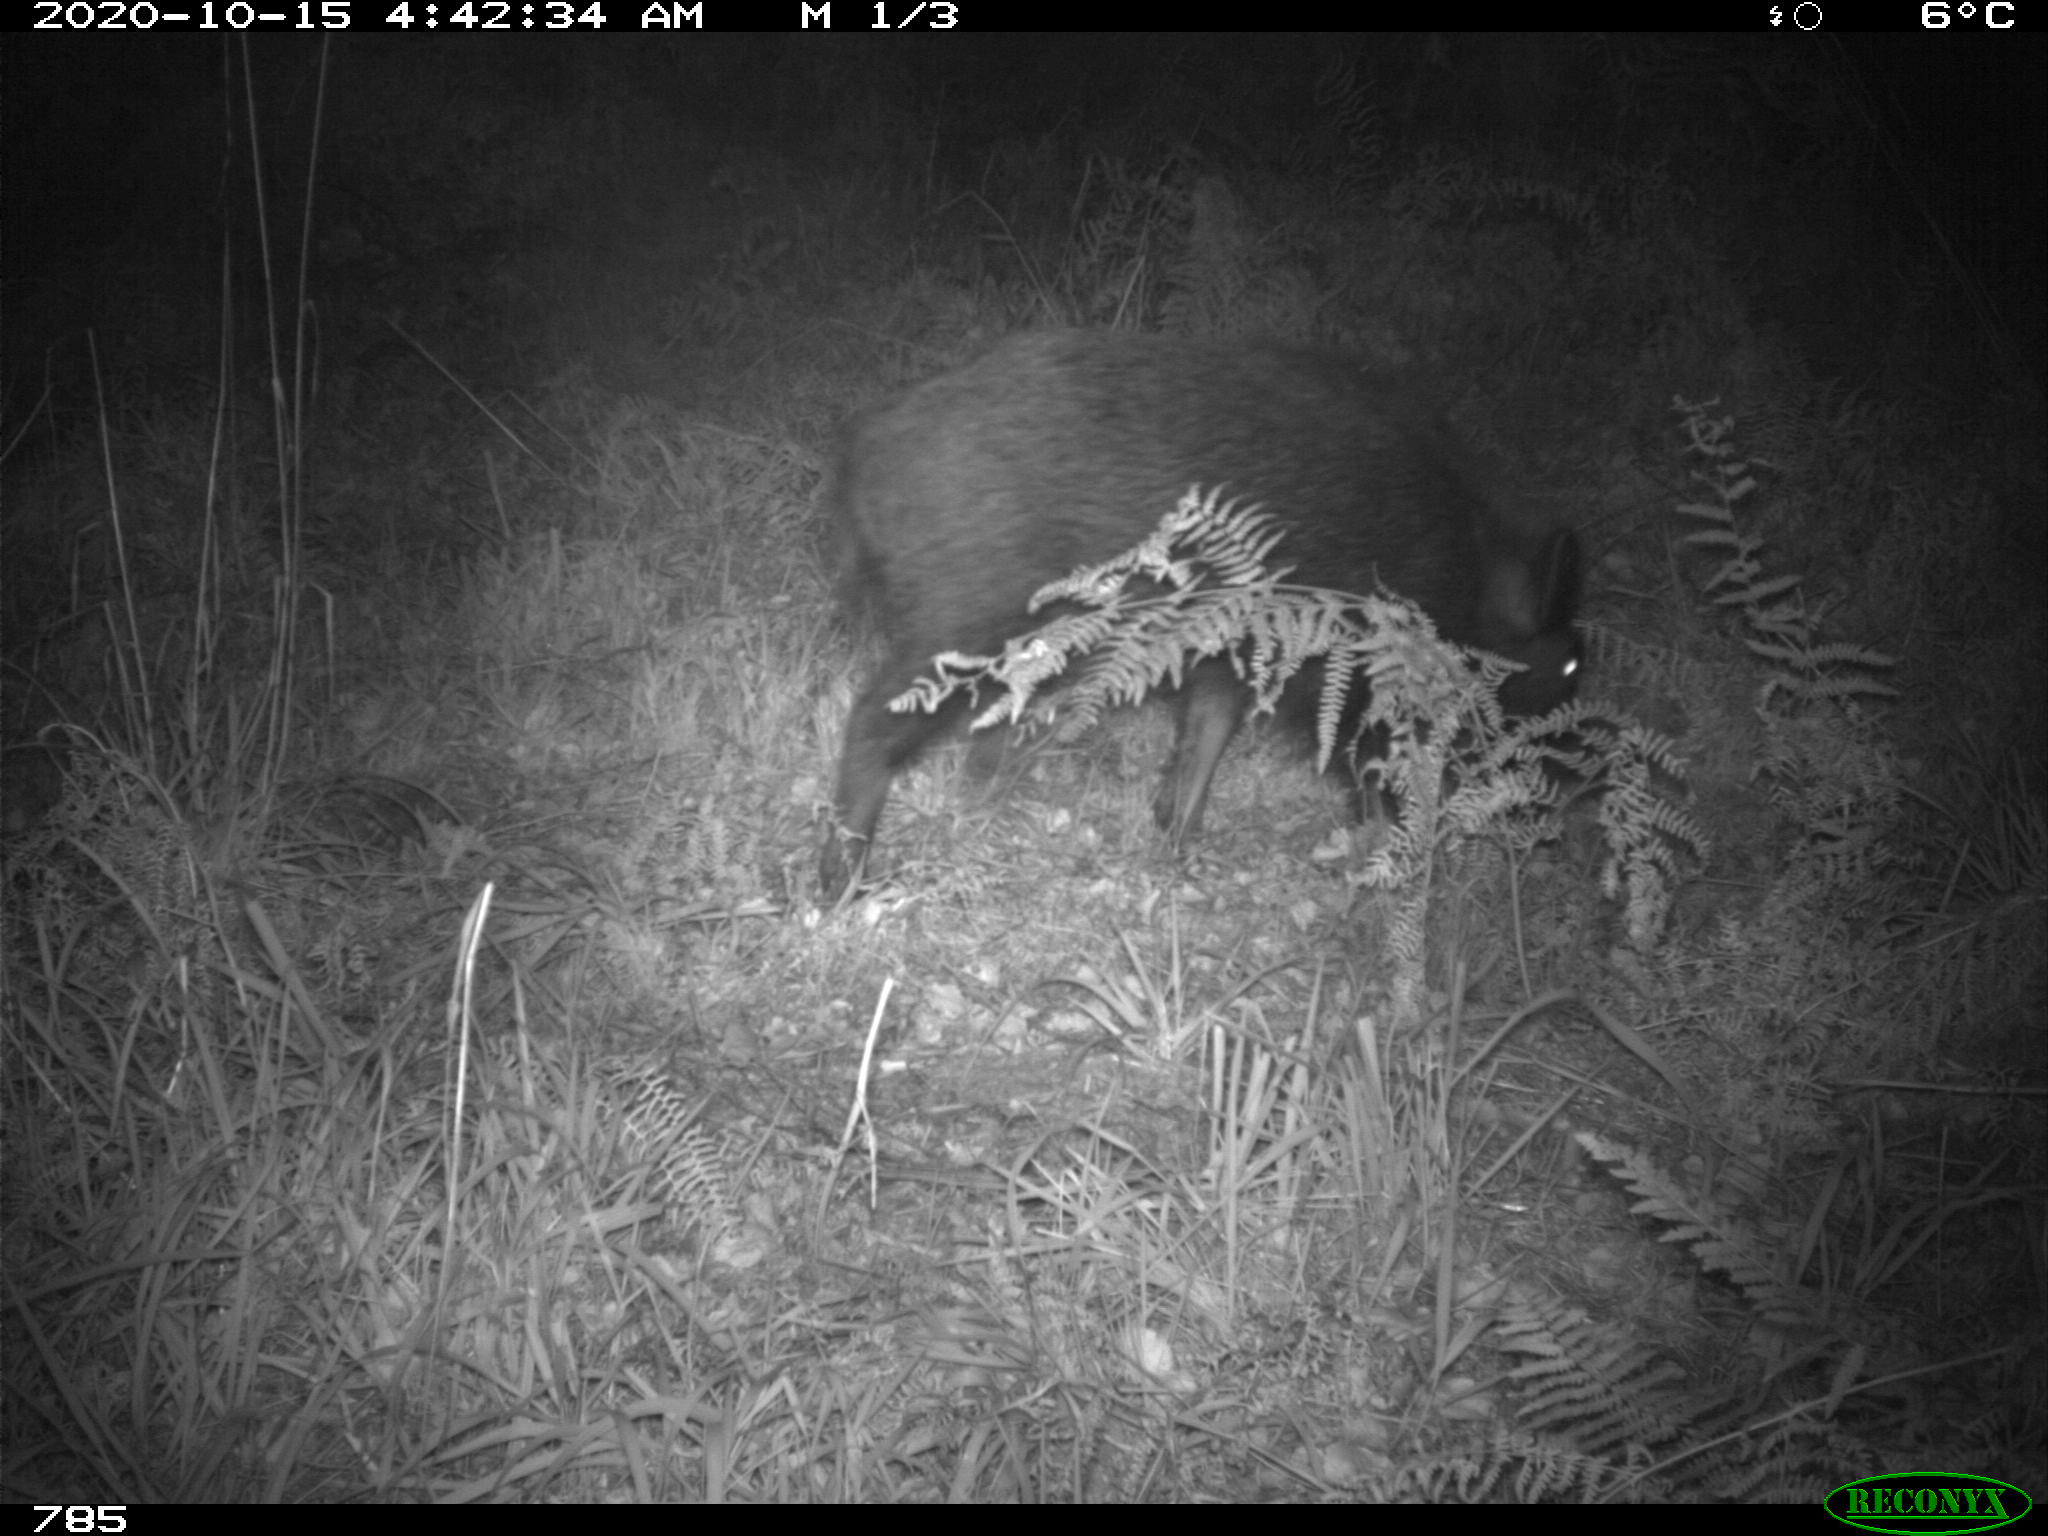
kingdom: Animalia
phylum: Chordata
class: Mammalia
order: Artiodactyla
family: Suidae
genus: Sus
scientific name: Sus scrofa
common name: Wild boar
